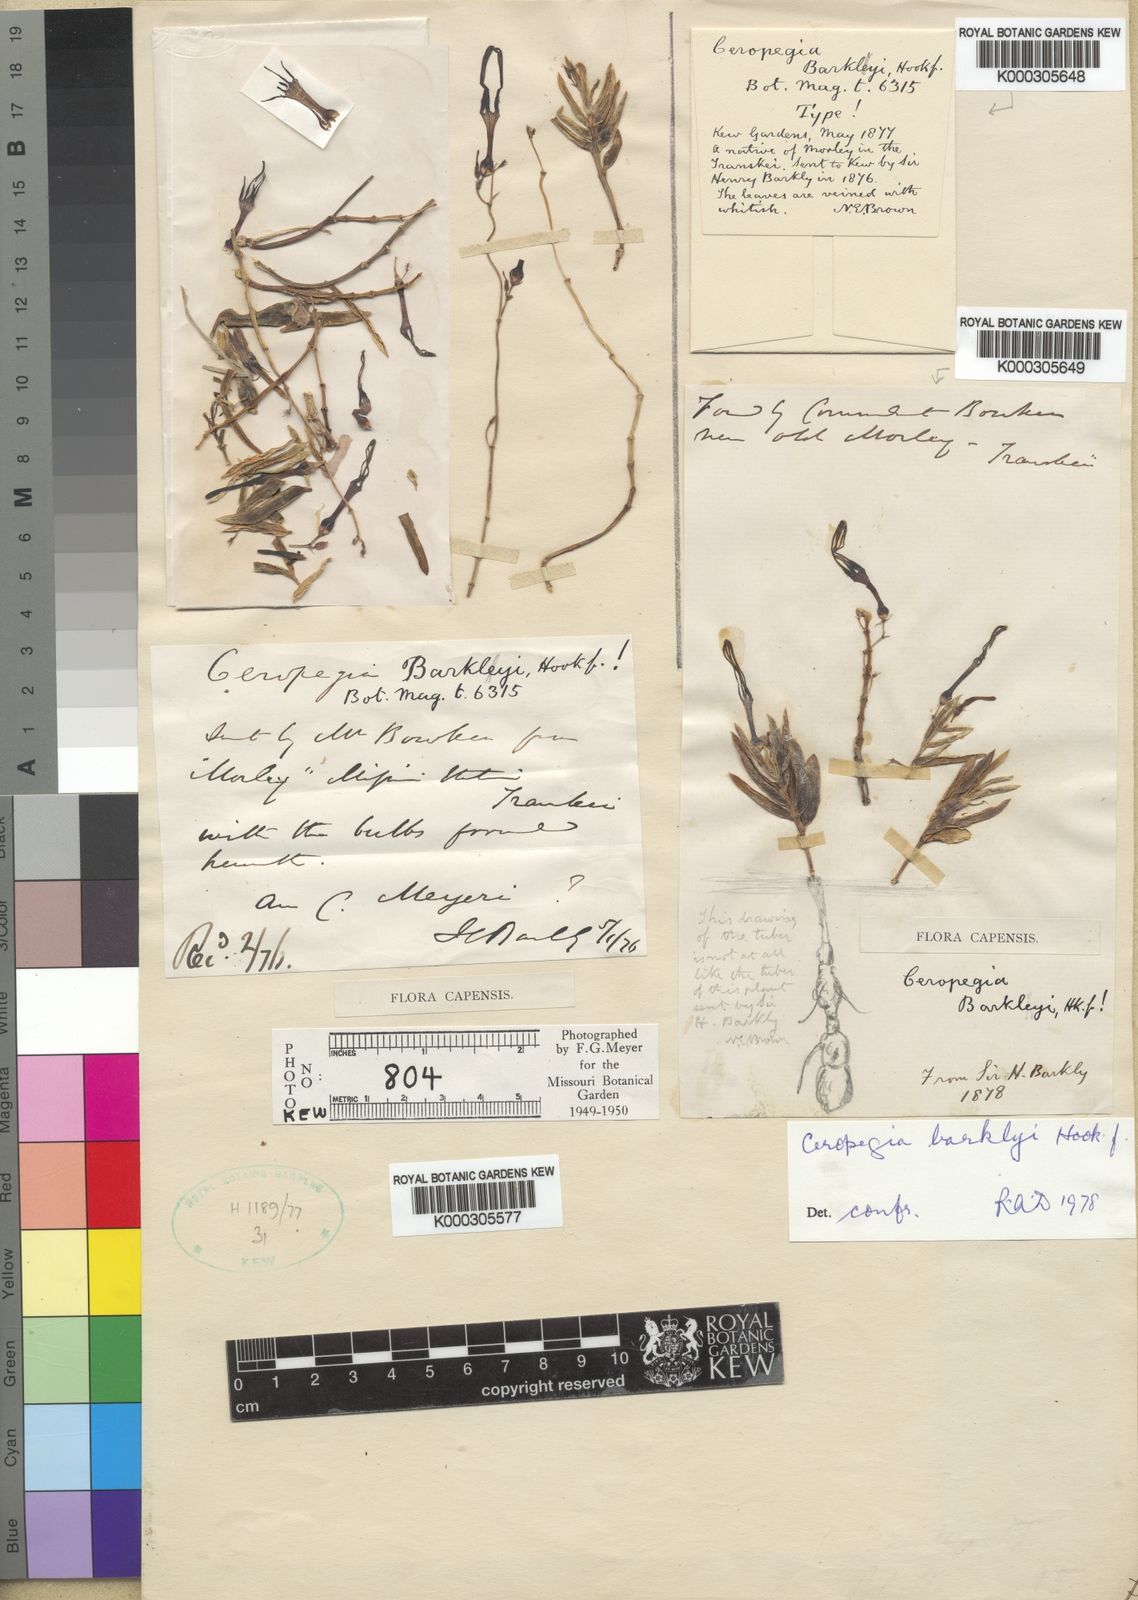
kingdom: Plantae
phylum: Tracheophyta
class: Magnoliopsida
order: Gentianales
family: Apocynaceae
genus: Ceropegia
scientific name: Ceropegia africana
